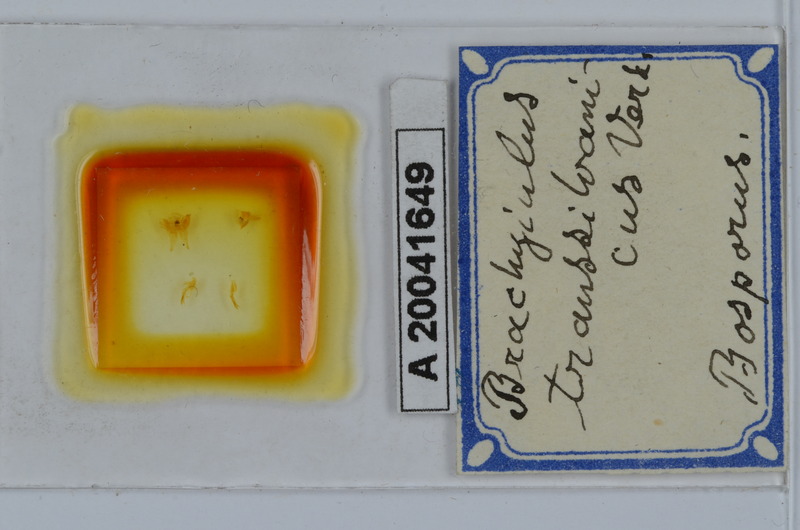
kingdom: Animalia
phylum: Arthropoda
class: Diplopoda
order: Julida
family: Julidae
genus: Megaphyllum
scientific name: Megaphyllum transsylvanicum
